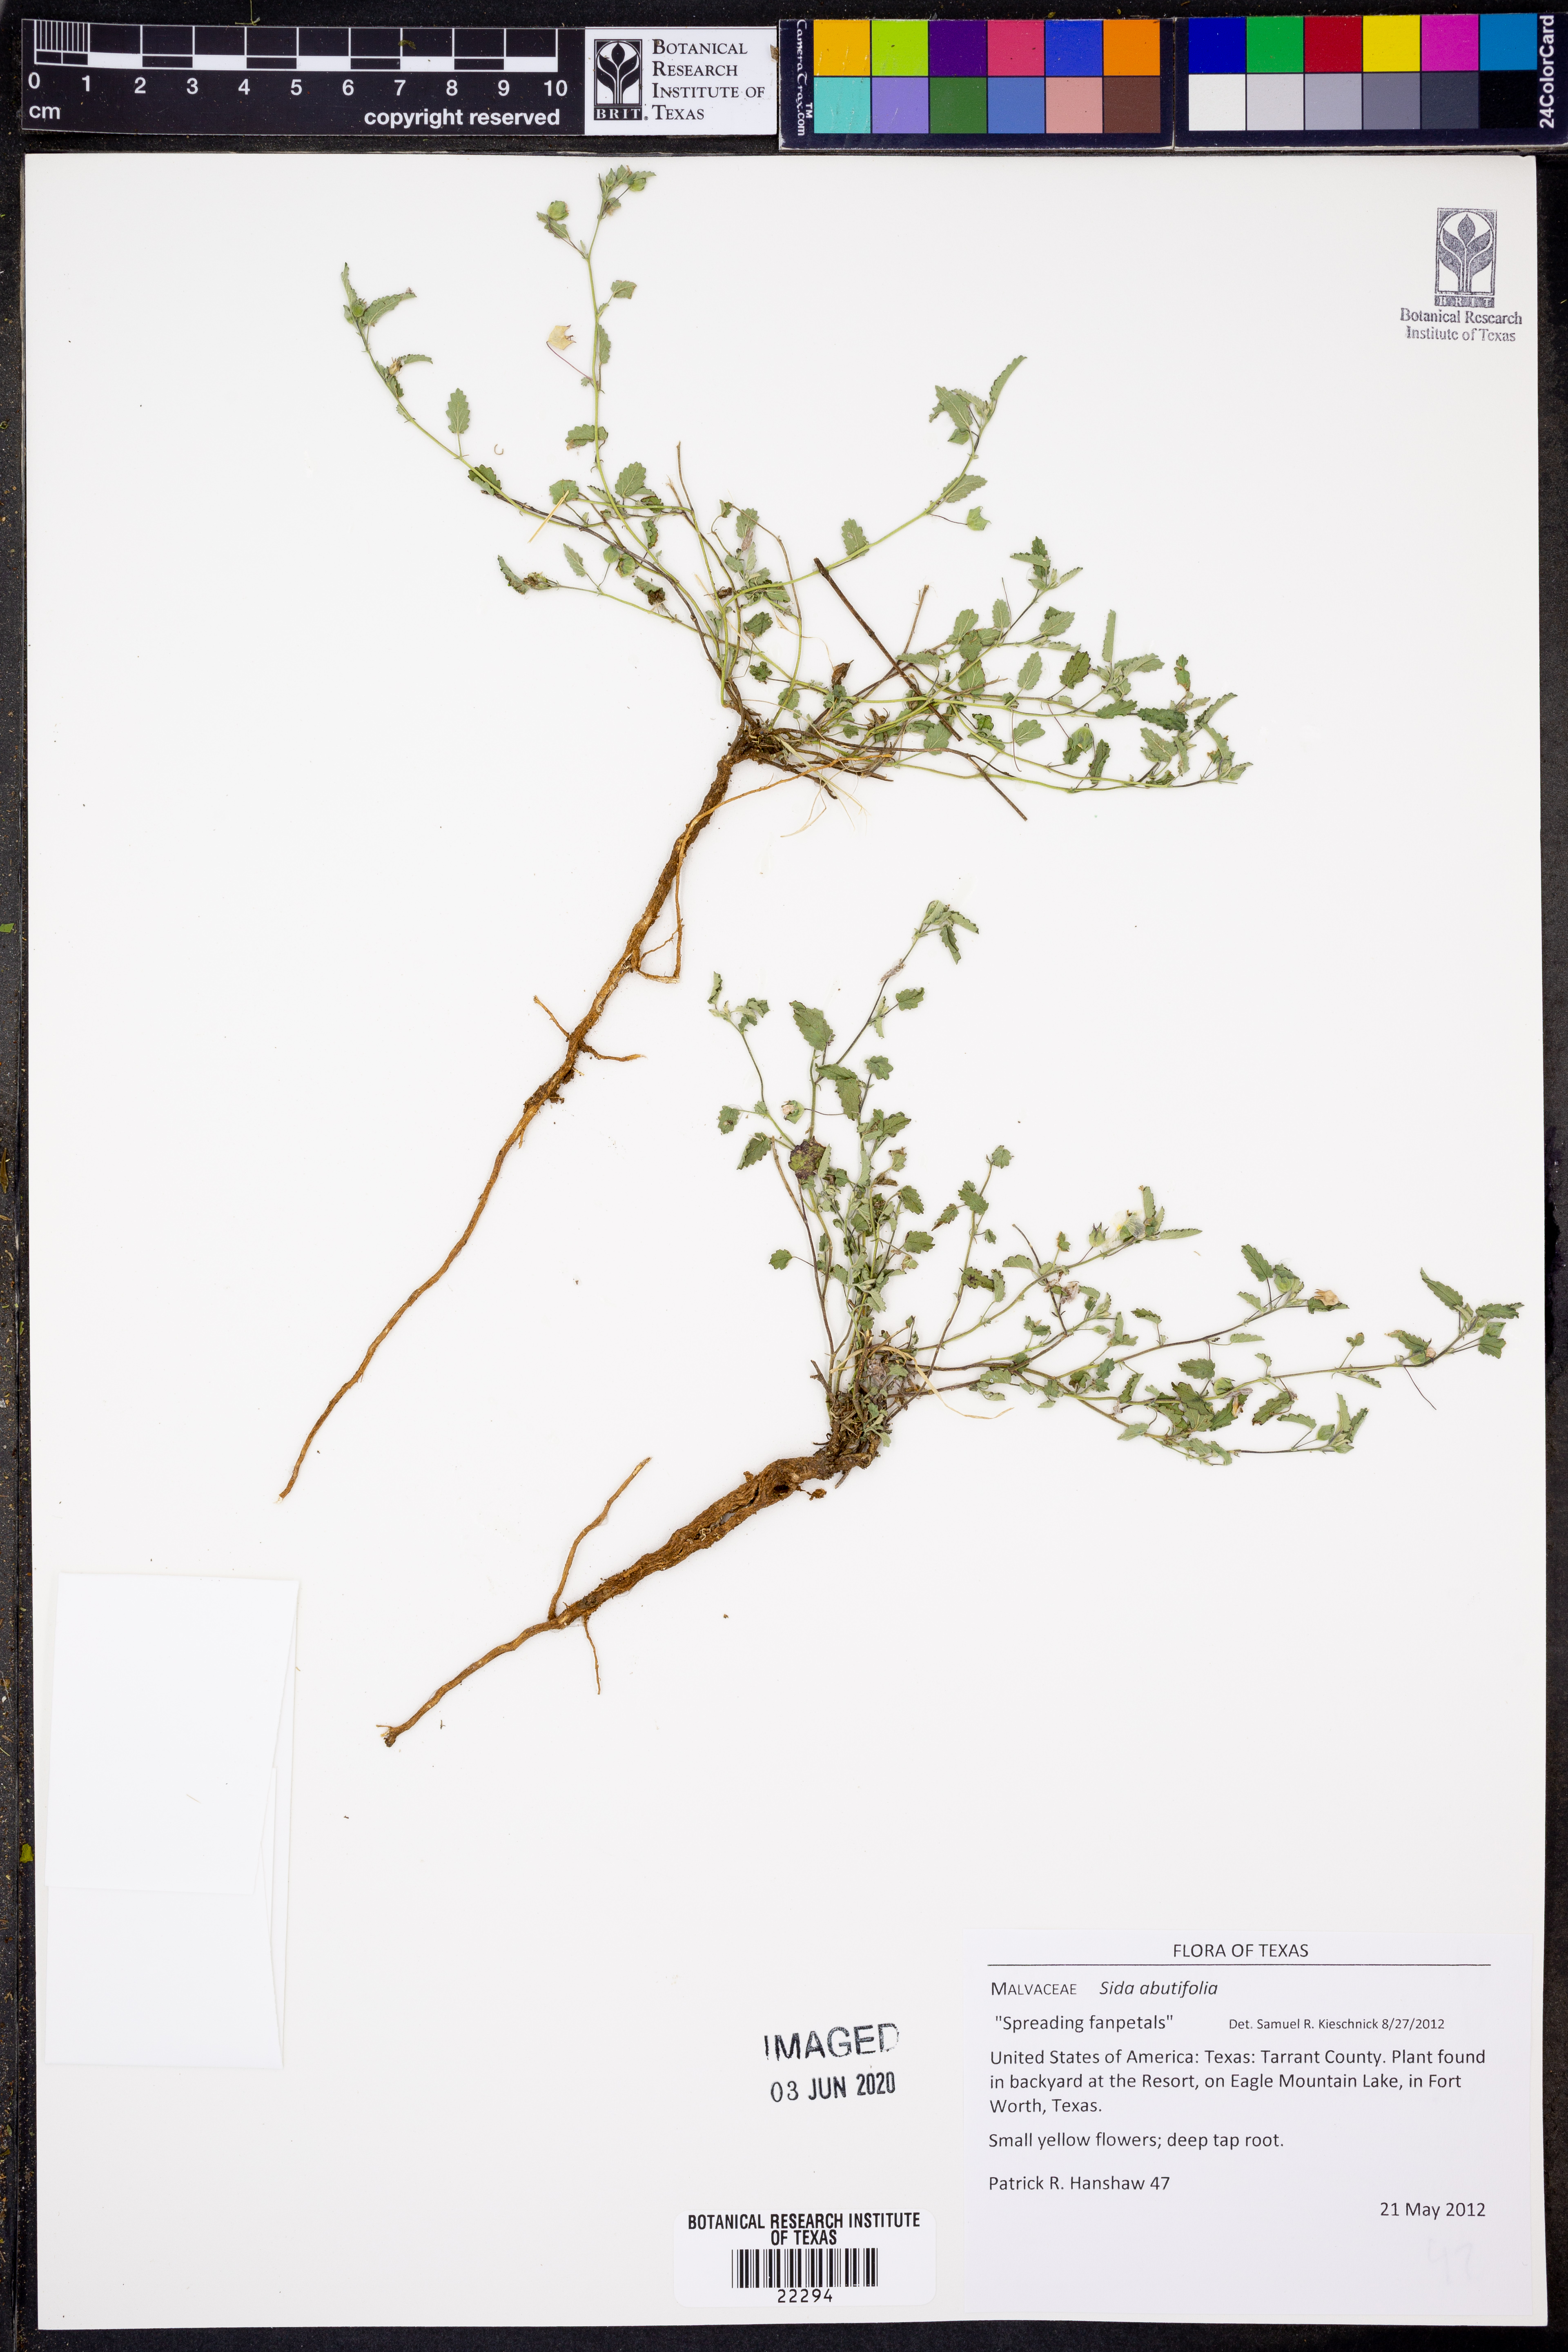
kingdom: Plantae
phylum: Tracheophyta
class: Magnoliopsida
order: Malvales
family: Malvaceae
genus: Sida
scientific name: Sida abutifolia
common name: Spreading fantails
